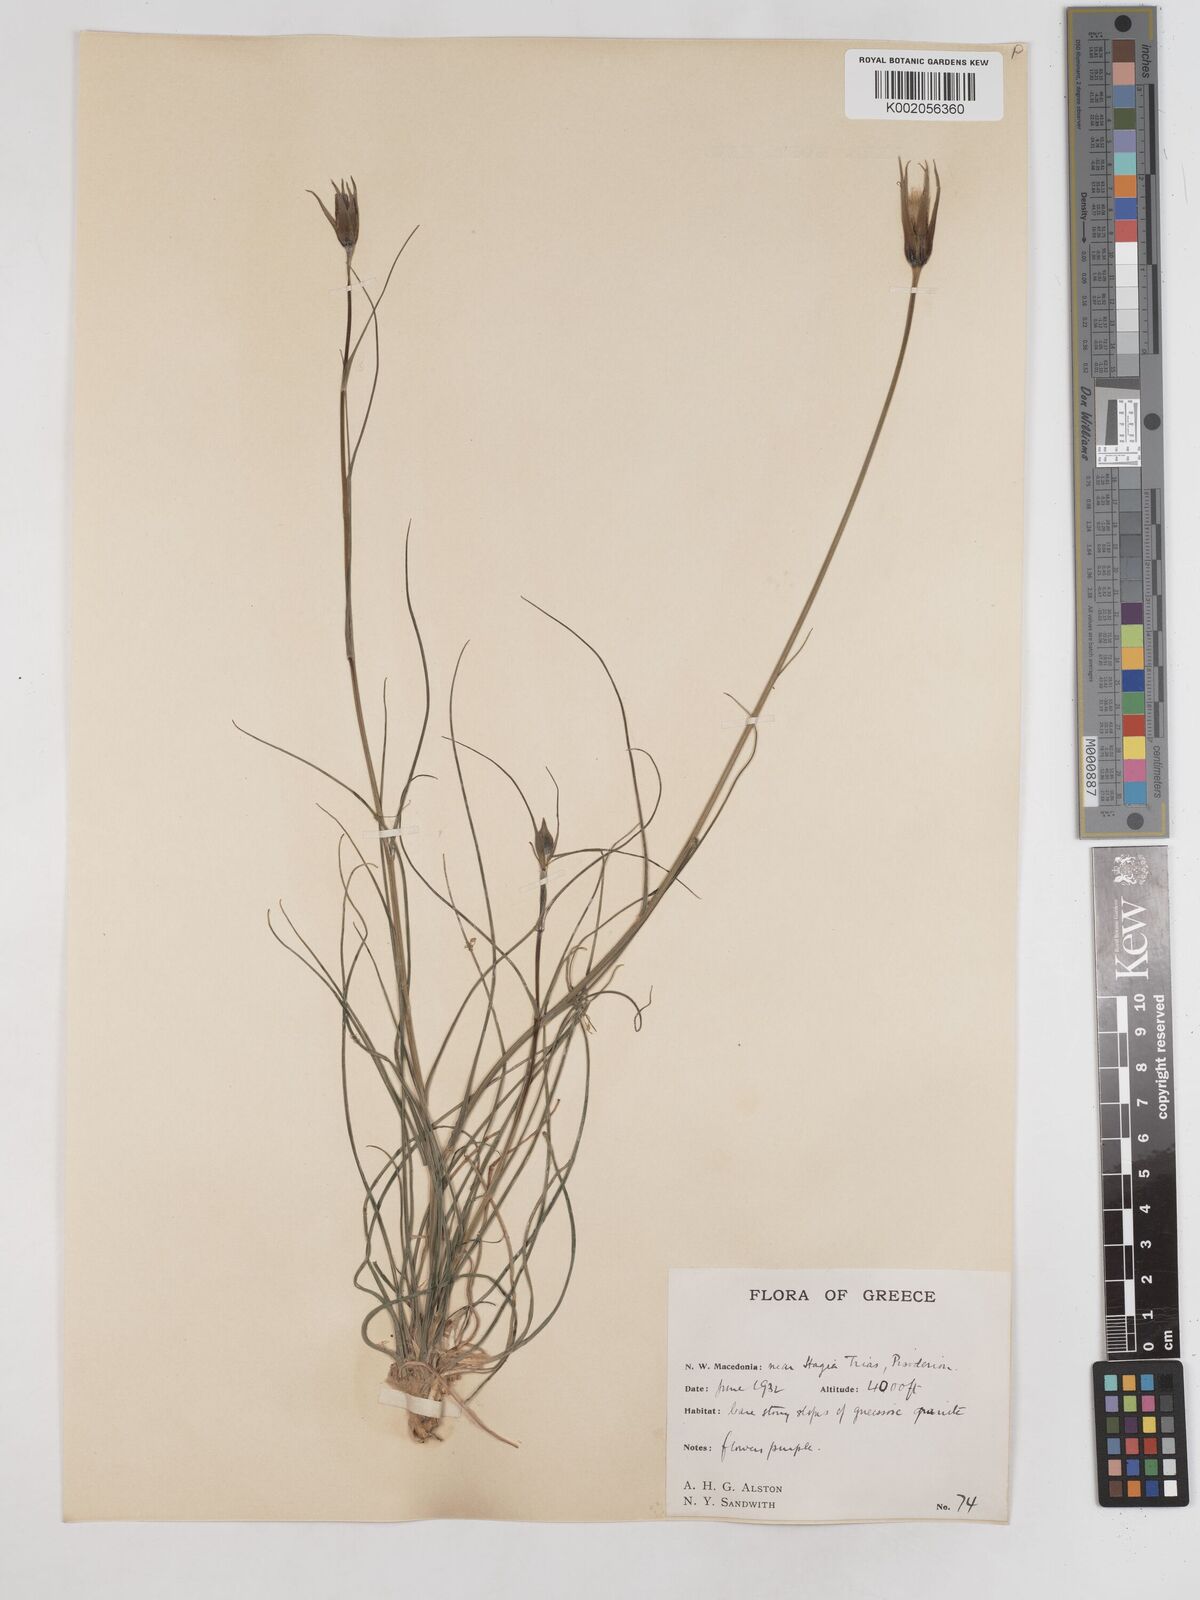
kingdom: Plantae
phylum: Tracheophyta
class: Magnoliopsida
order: Asterales
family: Asteraceae
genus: Tragopogon
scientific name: Tragopogon balcanicus
